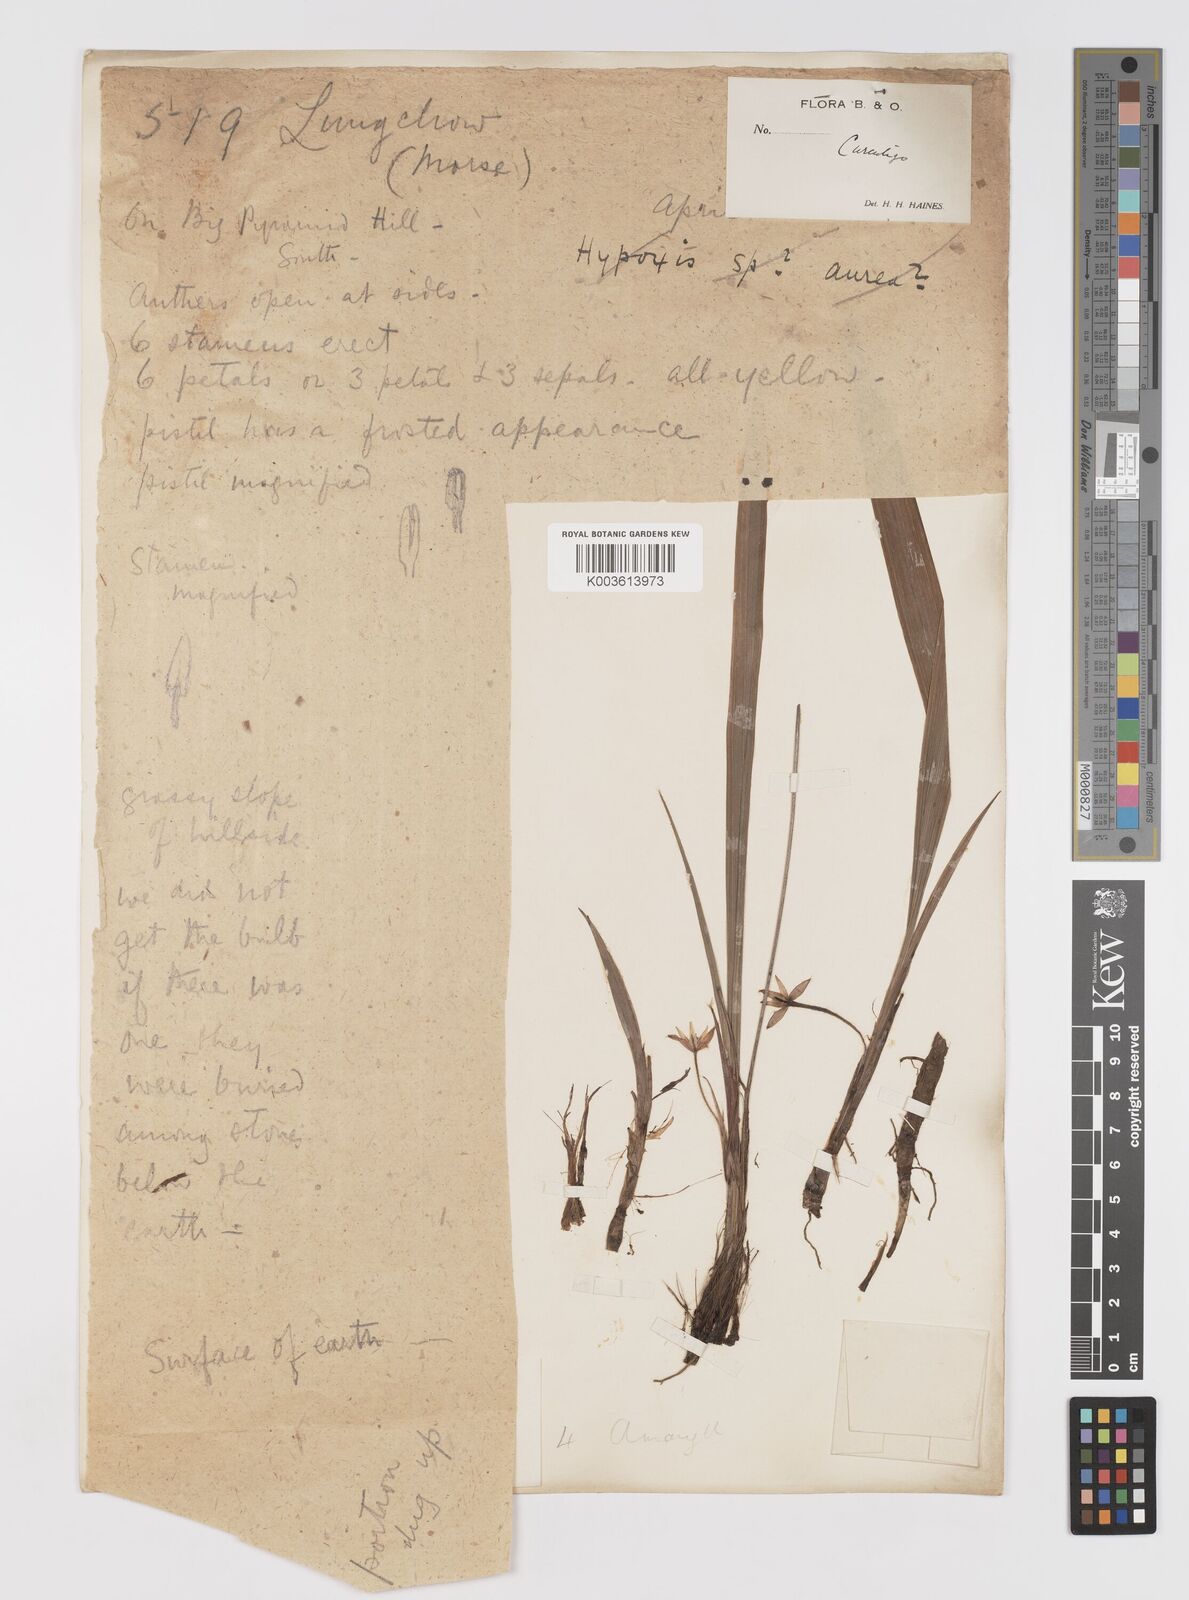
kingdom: Plantae
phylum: Tracheophyta
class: Liliopsida
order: Asparagales
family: Hypoxidaceae
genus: Curculigo
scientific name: Curculigo orchioides
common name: Golden eye-grass
